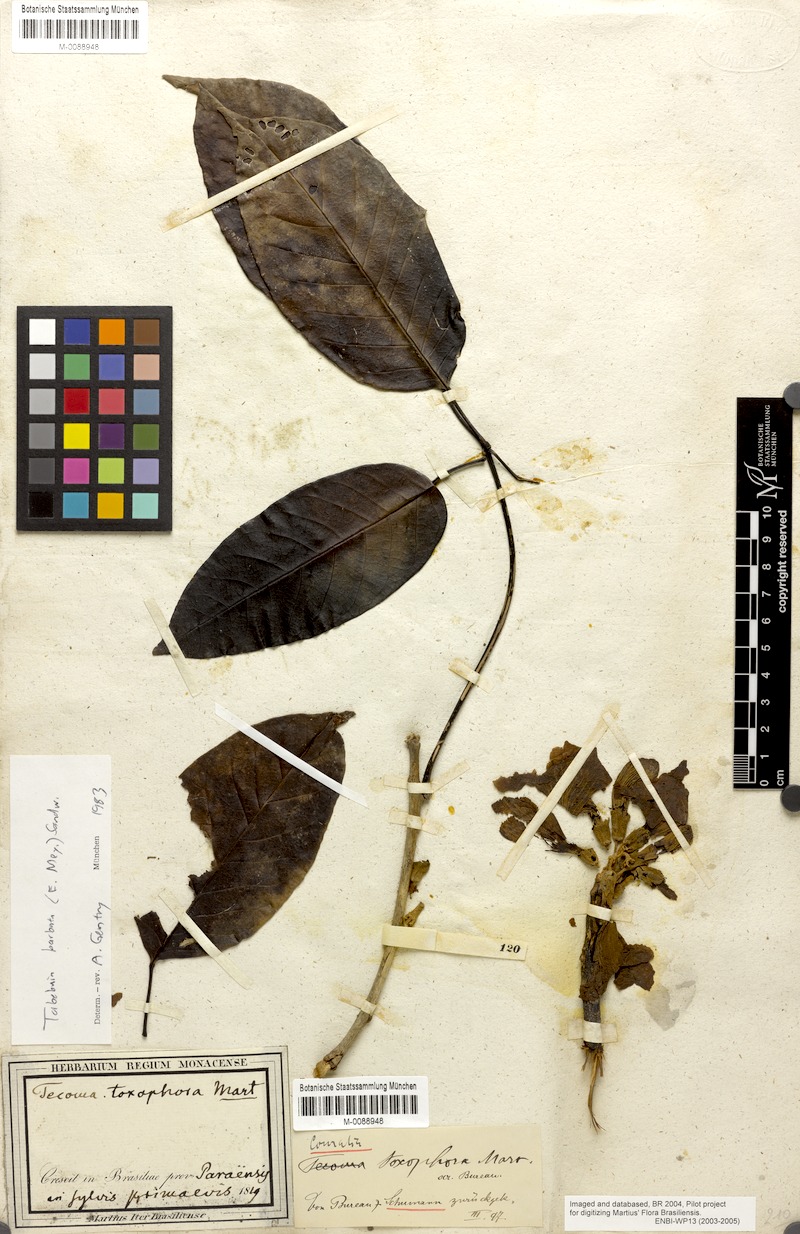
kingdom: Plantae
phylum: Tracheophyta
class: Magnoliopsida
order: Lamiales
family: Bignoniaceae
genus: Handroanthus
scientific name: Handroanthus barbatus
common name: Trumpet trees
